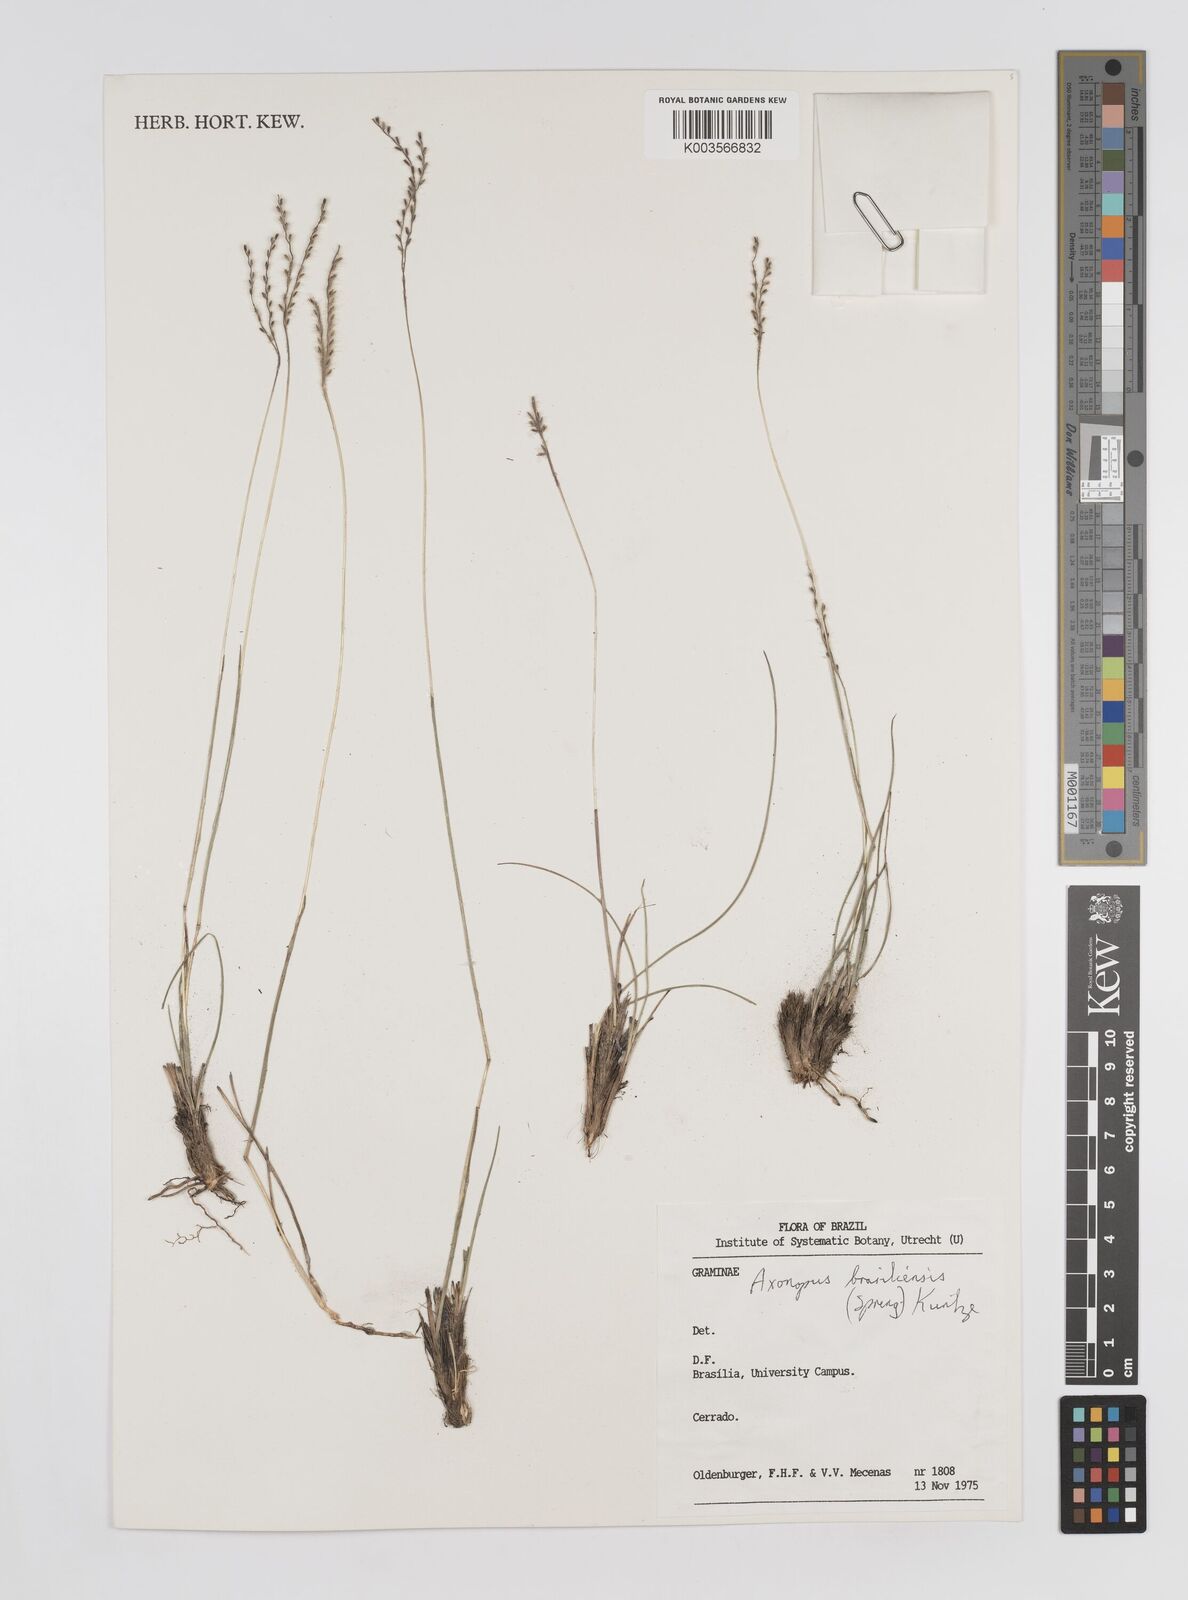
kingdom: Plantae
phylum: Tracheophyta
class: Liliopsida
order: Poales
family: Poaceae
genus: Axonopus
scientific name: Axonopus brasiliensis
